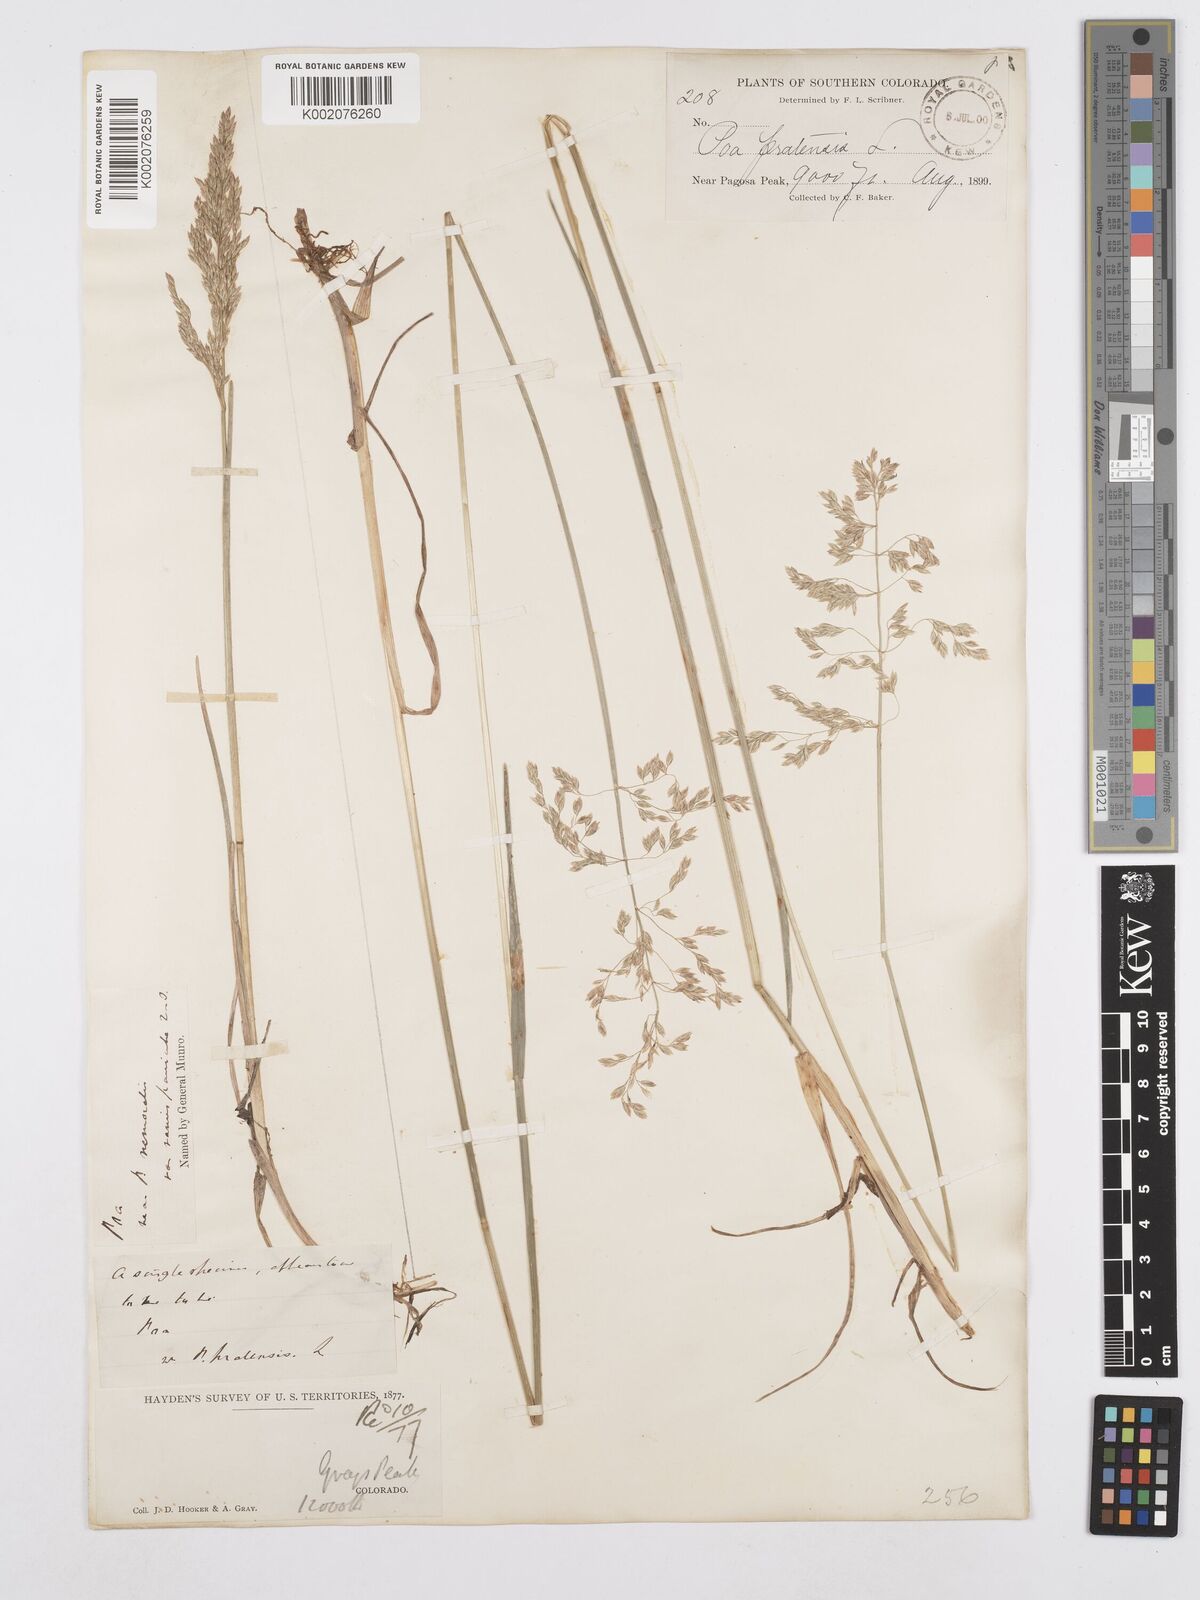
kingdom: Plantae
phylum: Tracheophyta
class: Liliopsida
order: Poales
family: Poaceae
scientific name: Poaceae
